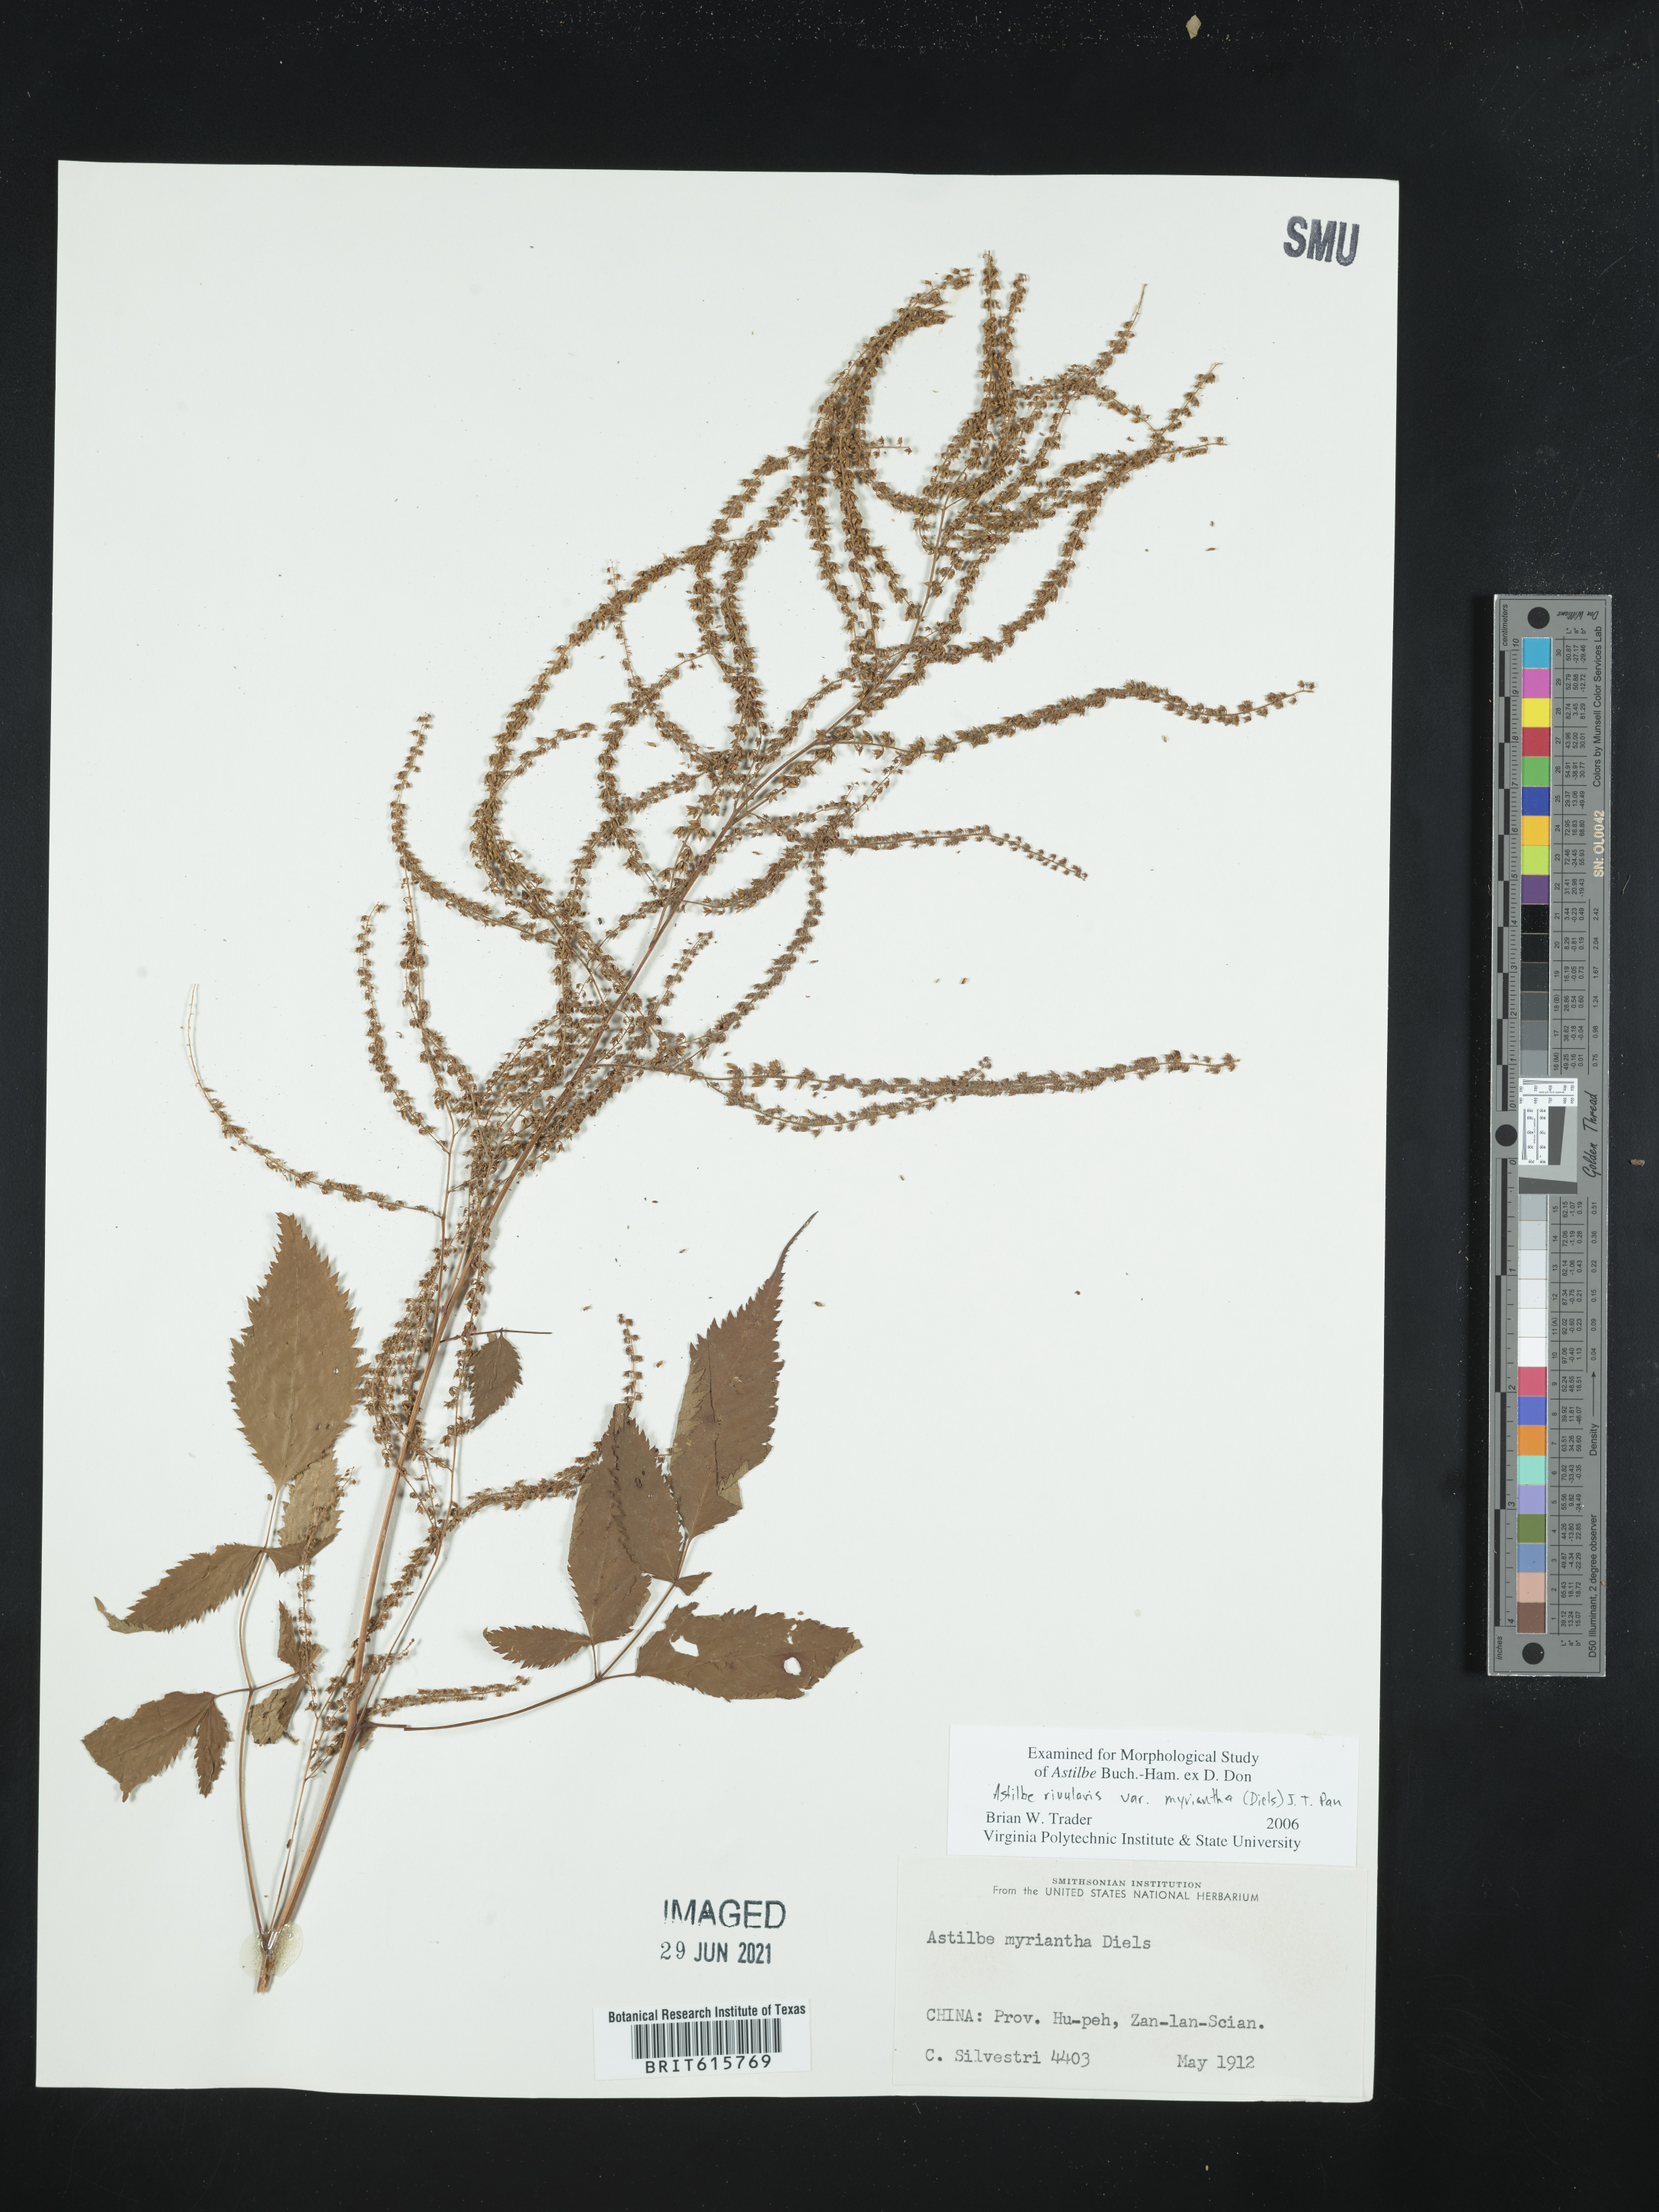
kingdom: Plantae
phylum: Tracheophyta
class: Magnoliopsida
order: Saxifragales
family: Saxifragaceae
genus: Astilbe
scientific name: Astilbe rivularis
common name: Tall false-buck's-beard
